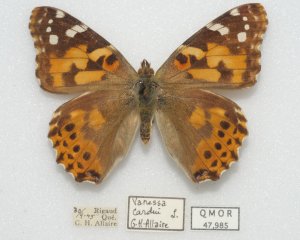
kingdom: Animalia
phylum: Arthropoda
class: Insecta
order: Lepidoptera
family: Nymphalidae
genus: Vanessa
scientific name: Vanessa cardui
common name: Painted Lady
